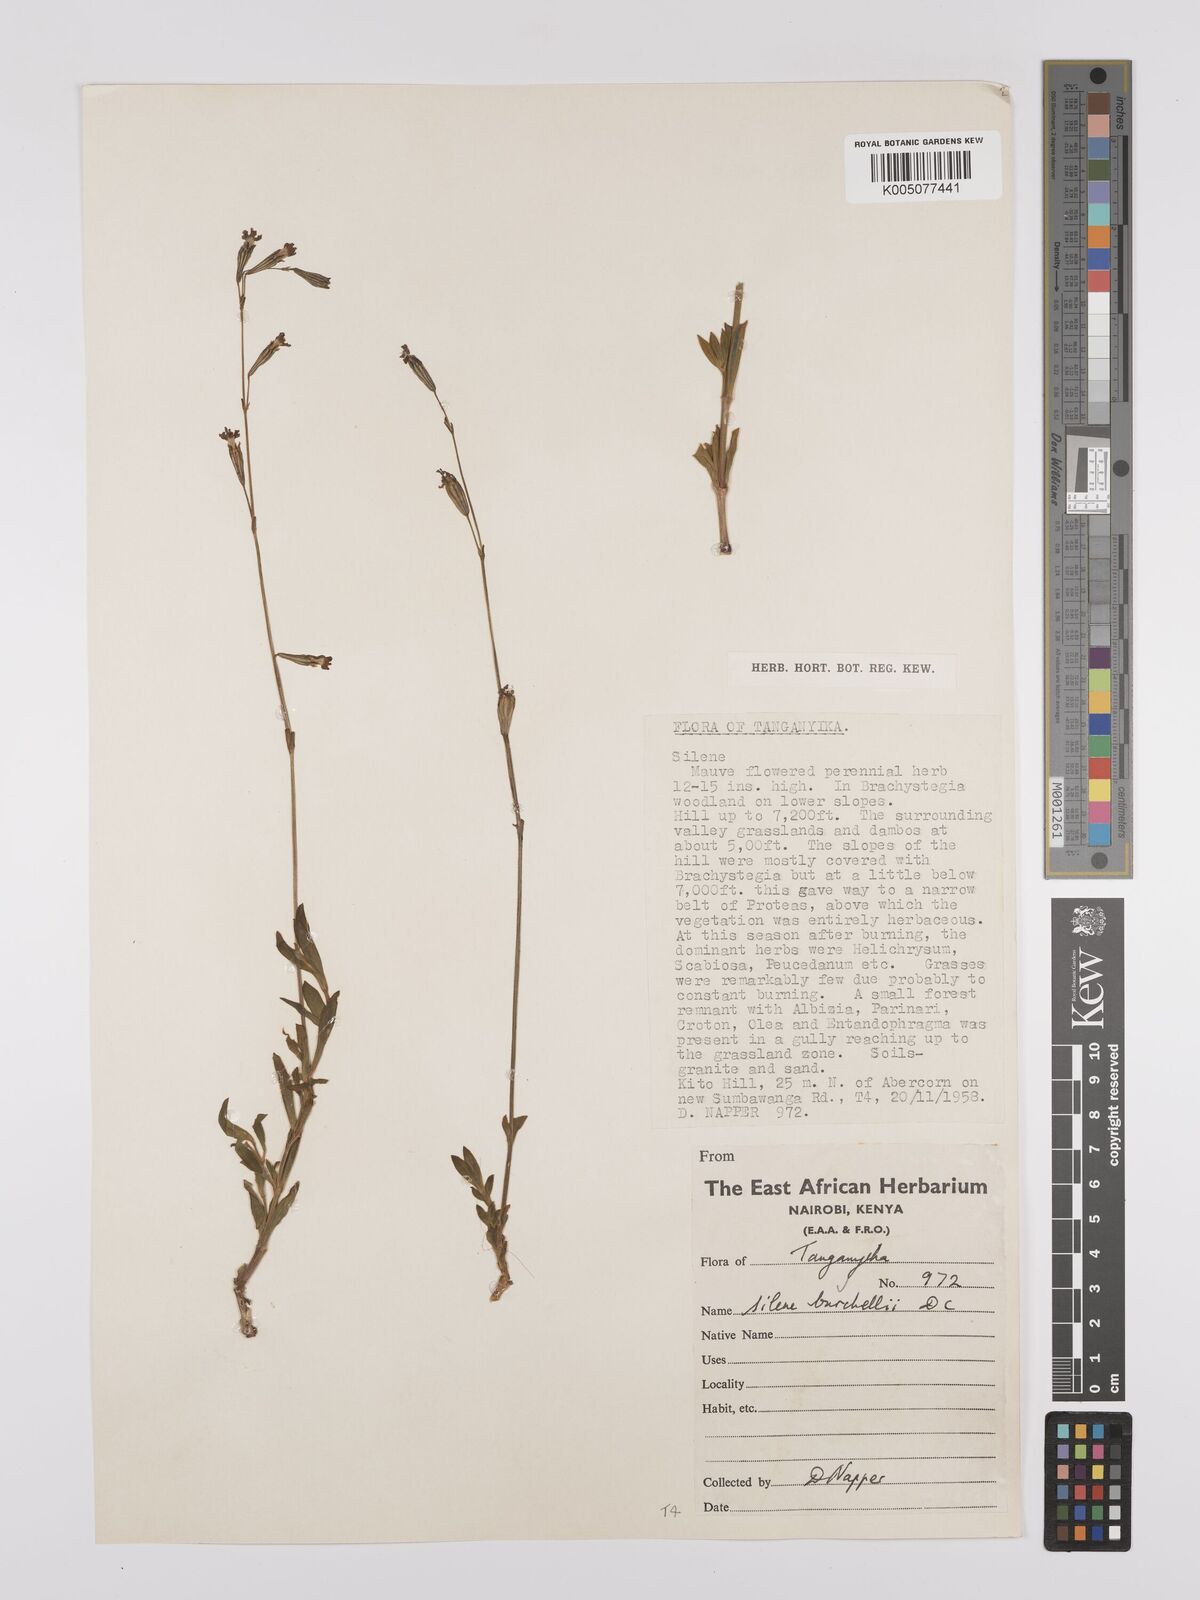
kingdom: Plantae
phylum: Tracheophyta
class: Magnoliopsida
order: Caryophyllales
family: Caryophyllaceae
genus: Silene
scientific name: Silene burchellii
